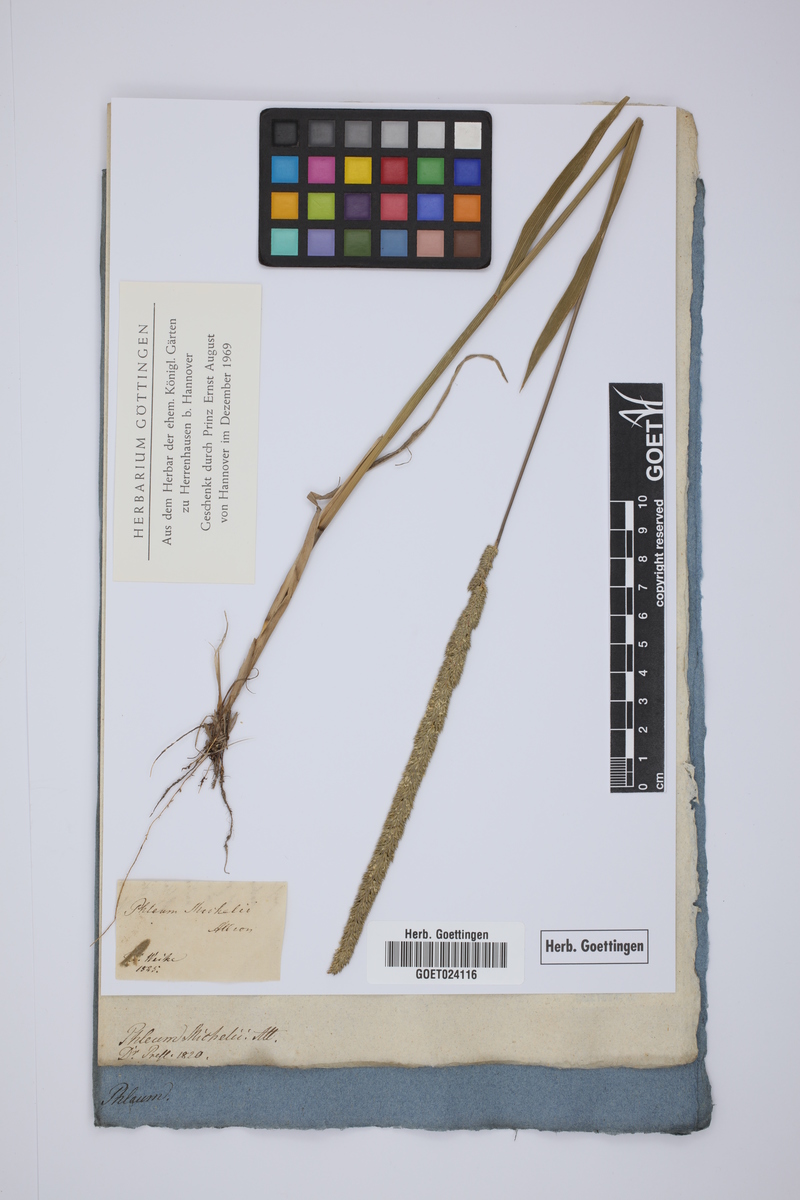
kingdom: Plantae
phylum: Tracheophyta
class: Liliopsida
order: Poales
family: Poaceae
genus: Phleum
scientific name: Phleum hirsutum
